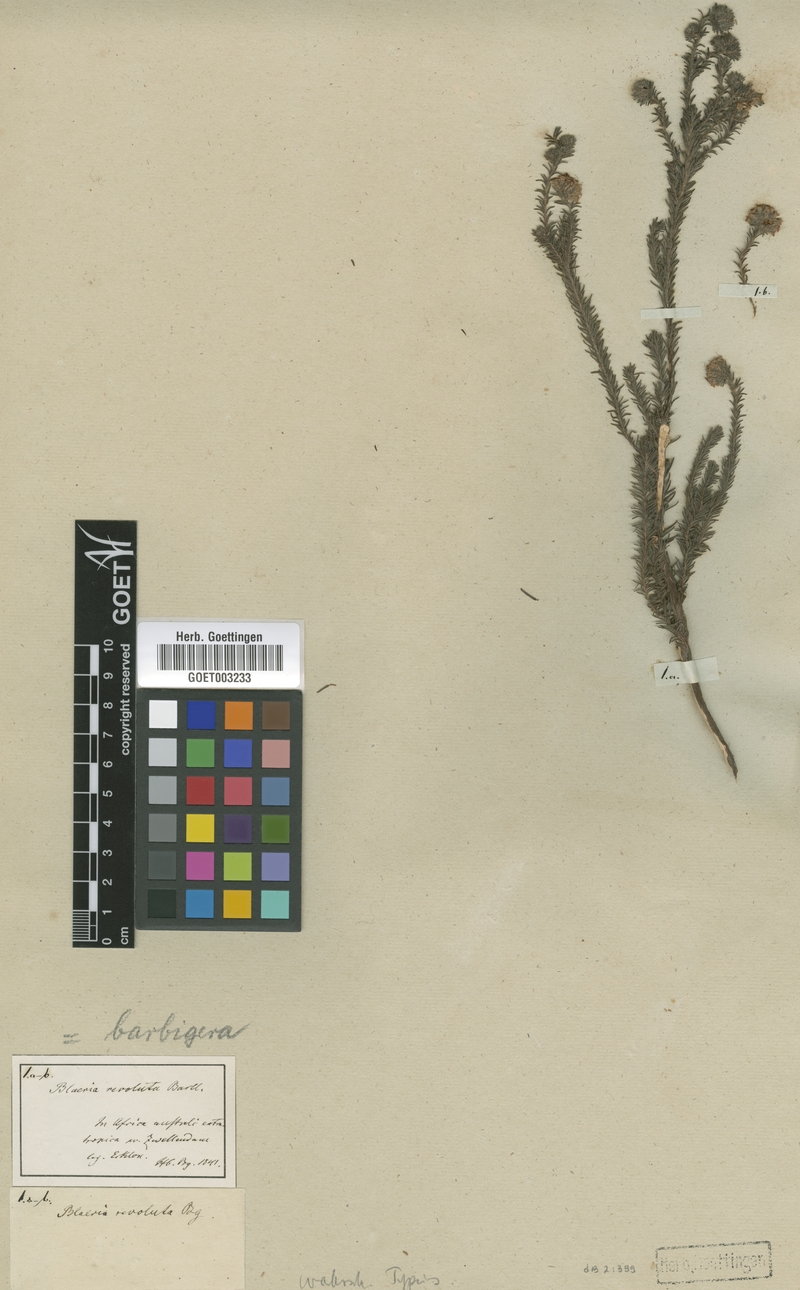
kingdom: Plantae
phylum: Tracheophyta
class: Magnoliopsida
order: Ericales
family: Ericaceae
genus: Erica
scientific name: Erica barbigeroides
